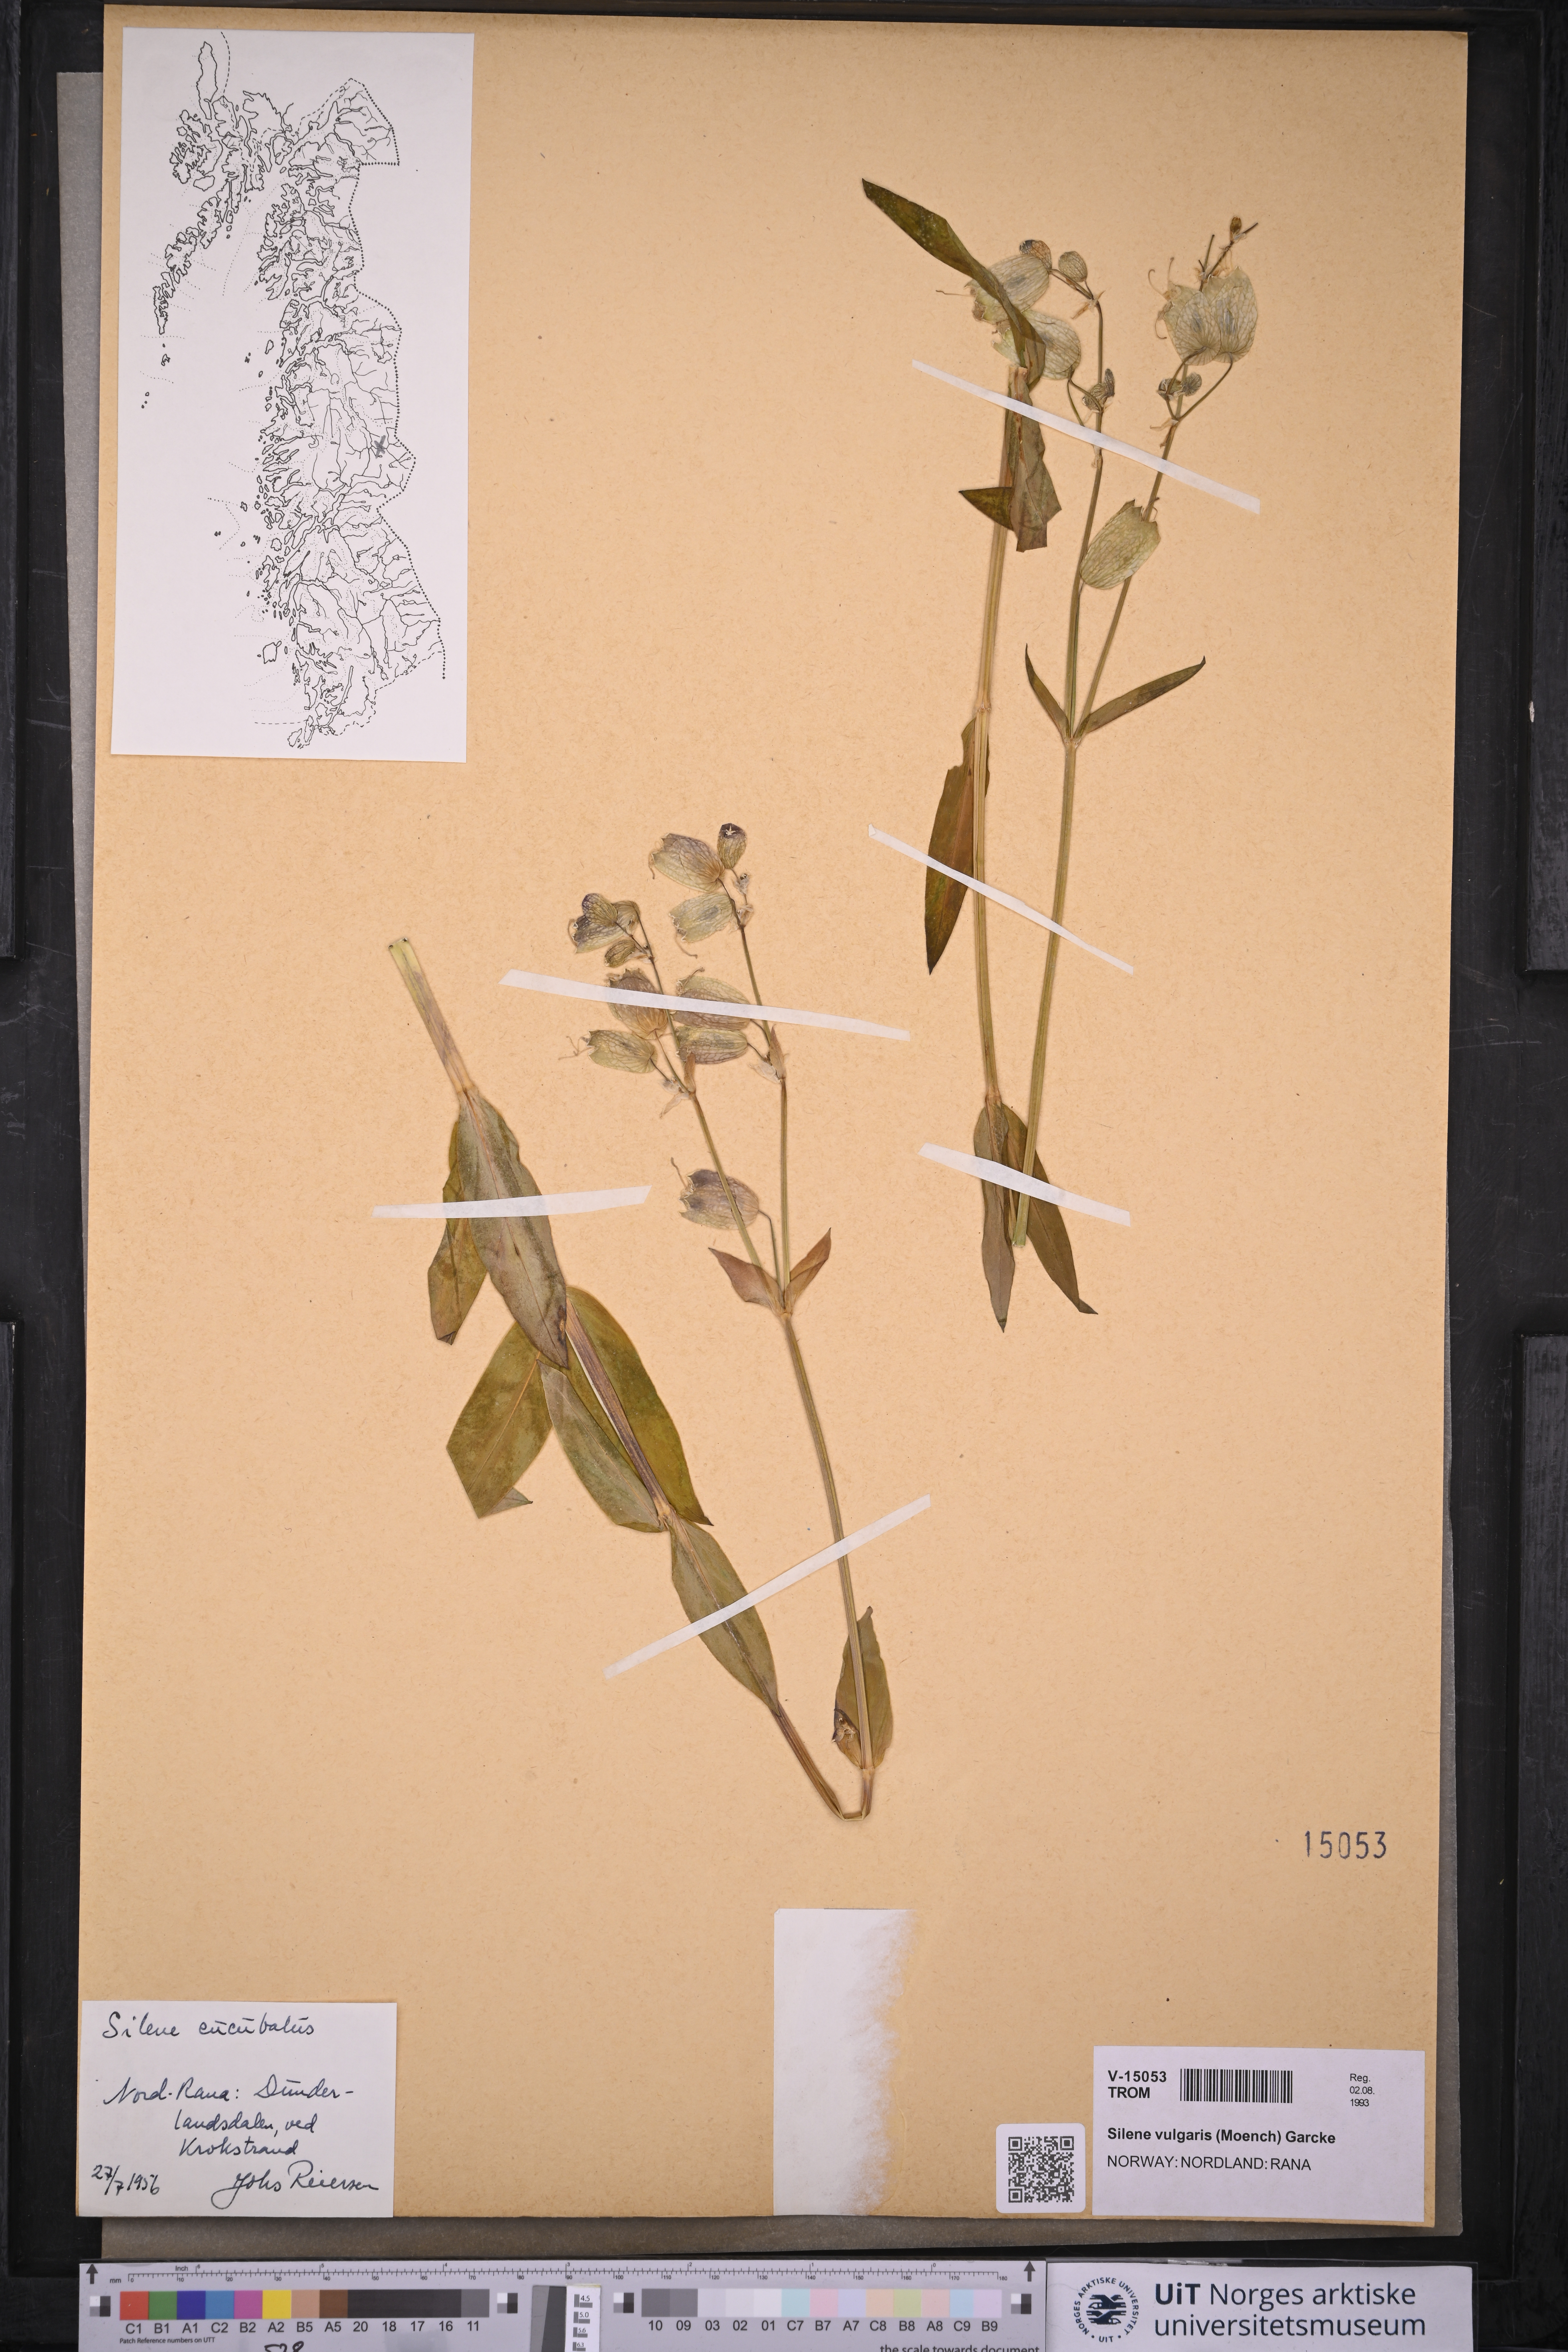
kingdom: Plantae
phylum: Tracheophyta
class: Magnoliopsida
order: Caryophyllales
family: Caryophyllaceae
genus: Silene
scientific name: Silene vulgaris
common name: Bladder campion
